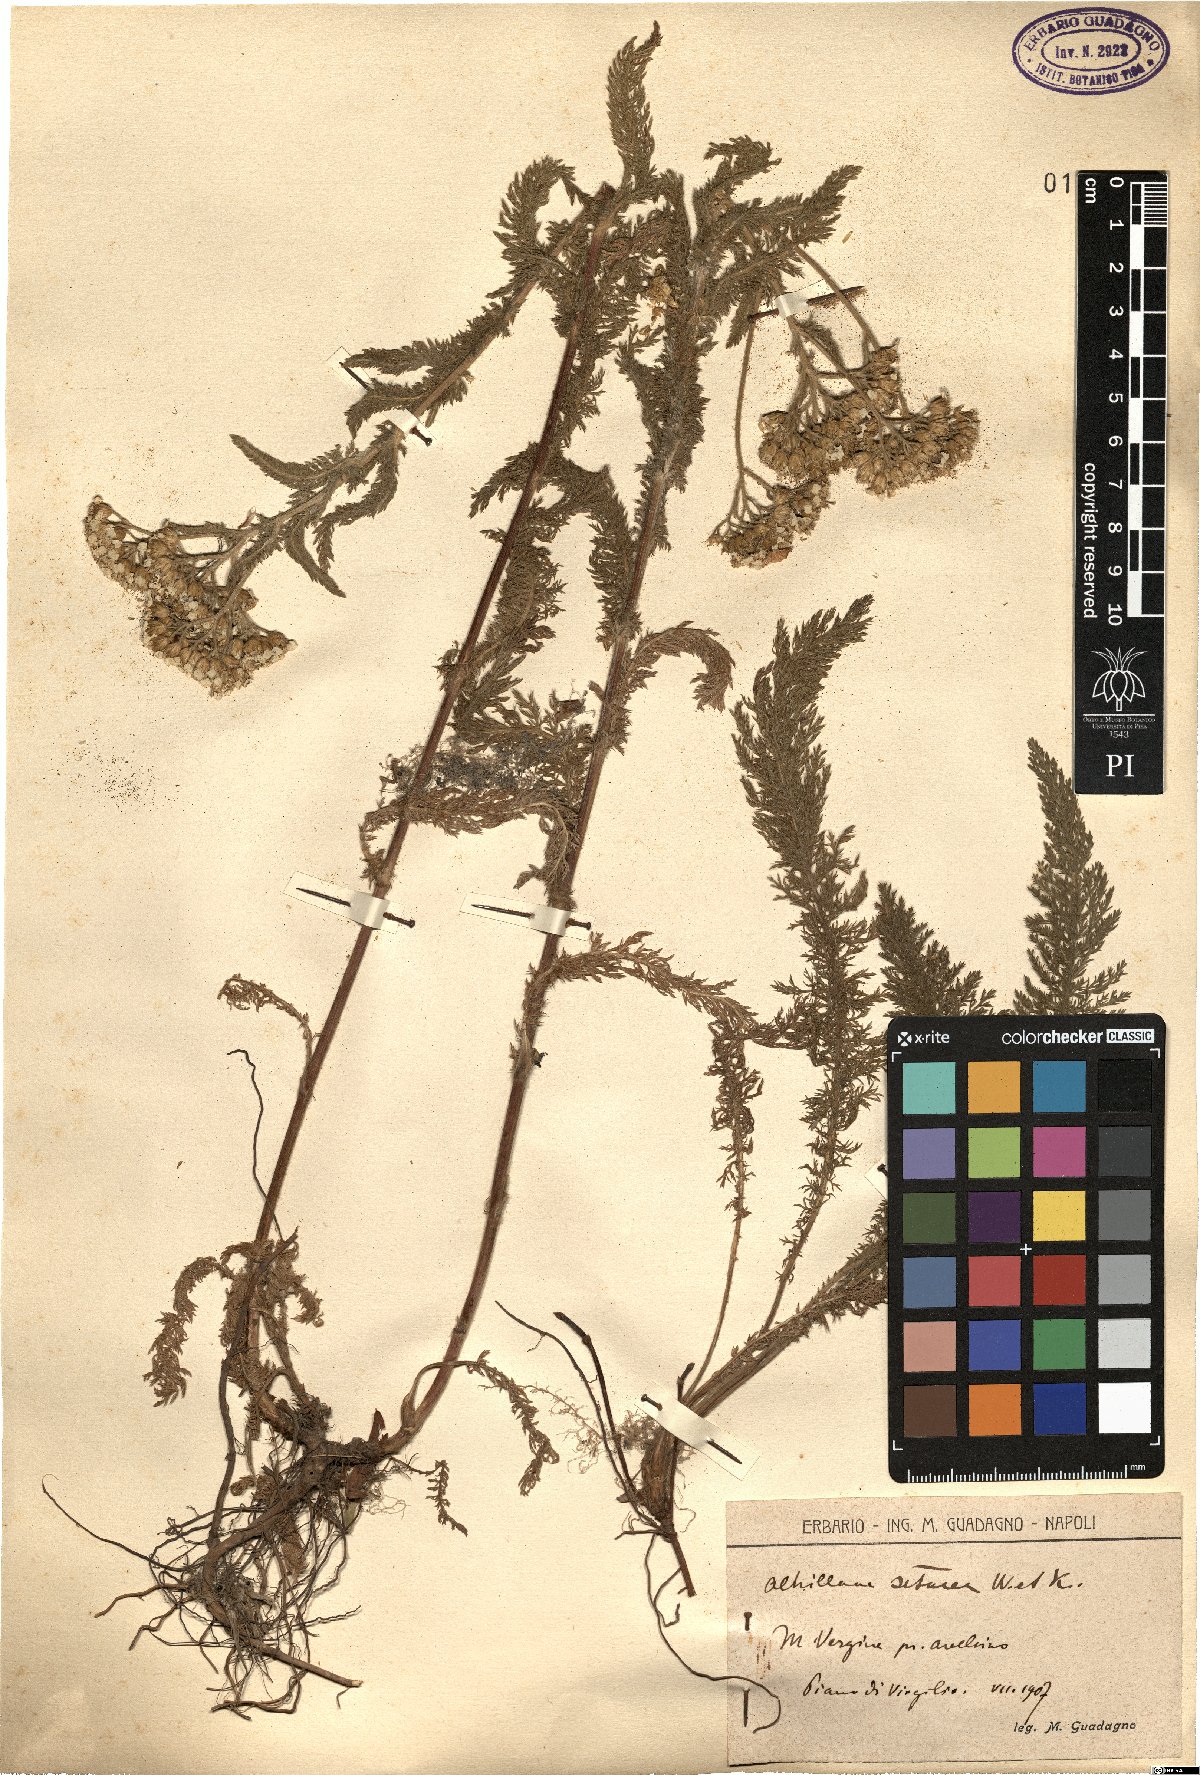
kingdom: Plantae
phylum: Tracheophyta
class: Magnoliopsida
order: Asterales
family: Asteraceae
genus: Achillea
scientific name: Achillea setacea
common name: Bristly yarrow
